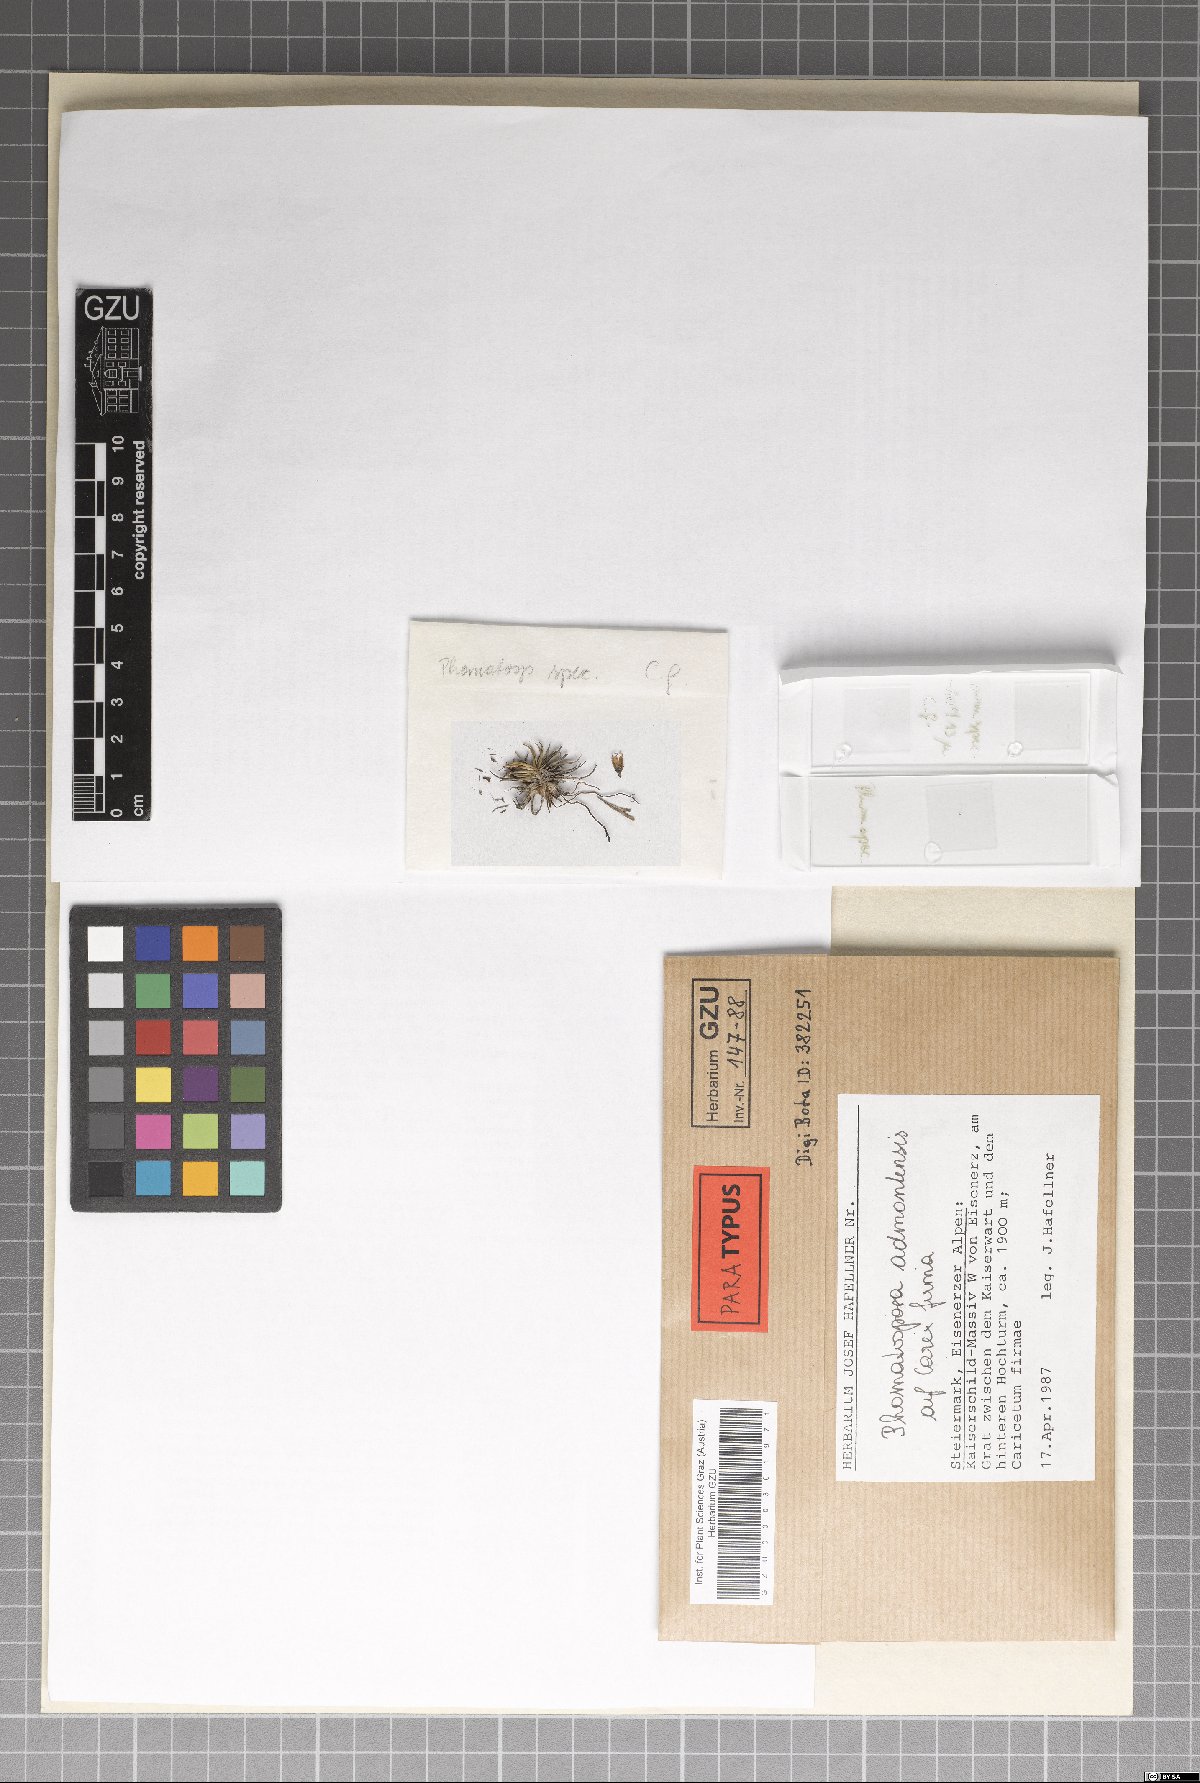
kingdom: Fungi
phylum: Ascomycota
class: Sordariomycetes
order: Phomatosporales
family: Phomatosporaceae
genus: Phomatospora
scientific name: Phomatospora admontensis
